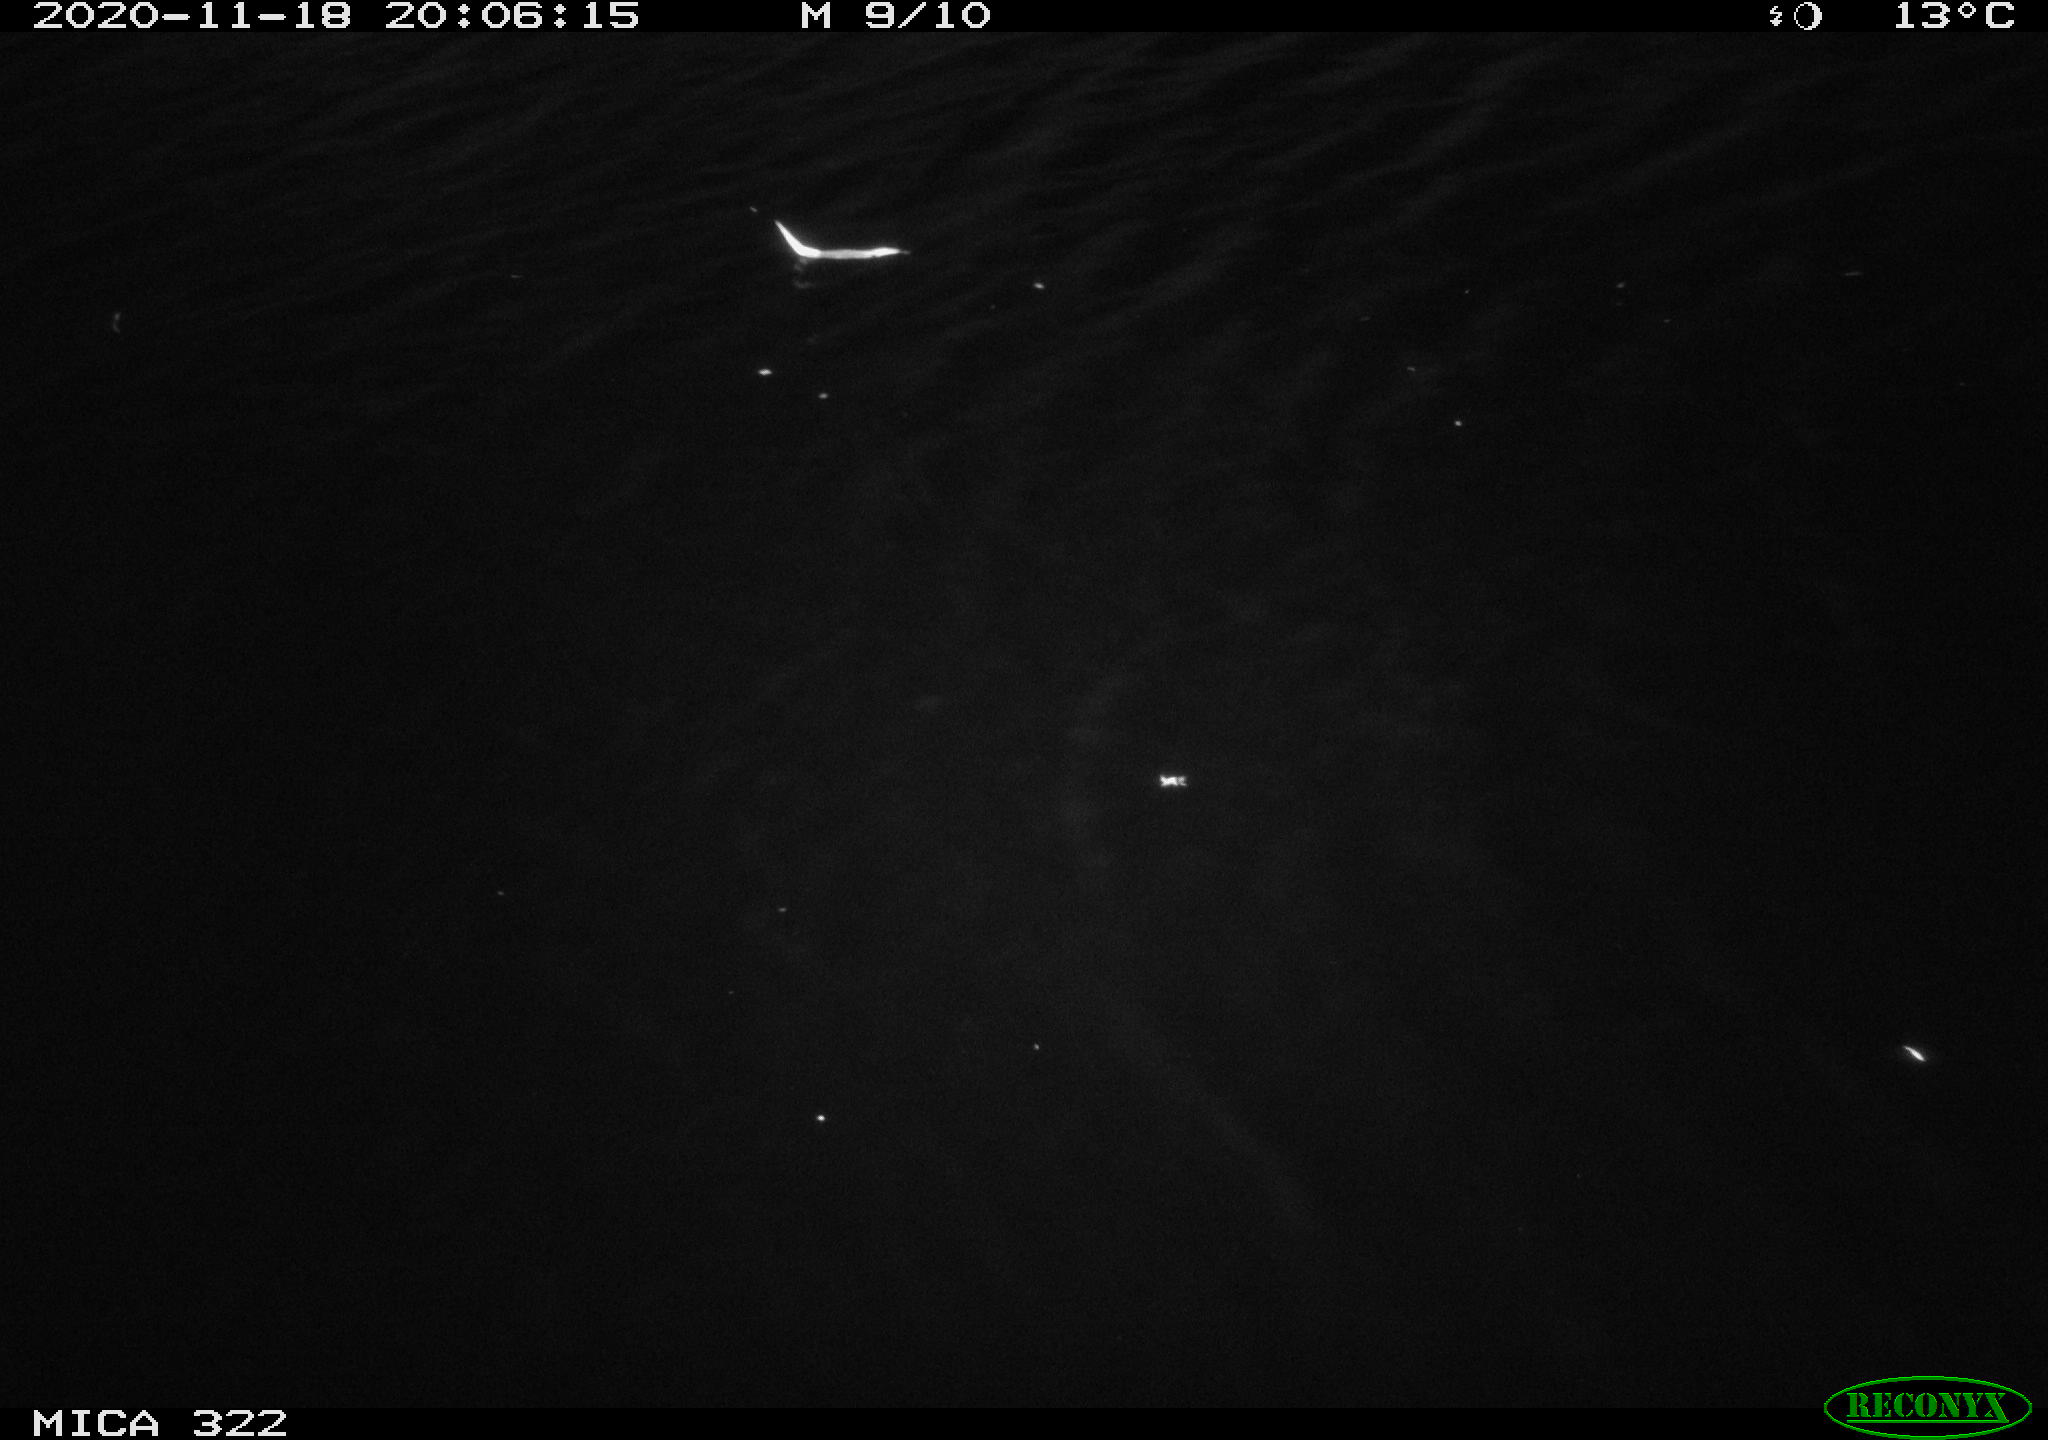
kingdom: Animalia
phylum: Chordata
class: Mammalia
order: Rodentia
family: Muridae
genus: Rattus
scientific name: Rattus norvegicus
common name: Brown rat
